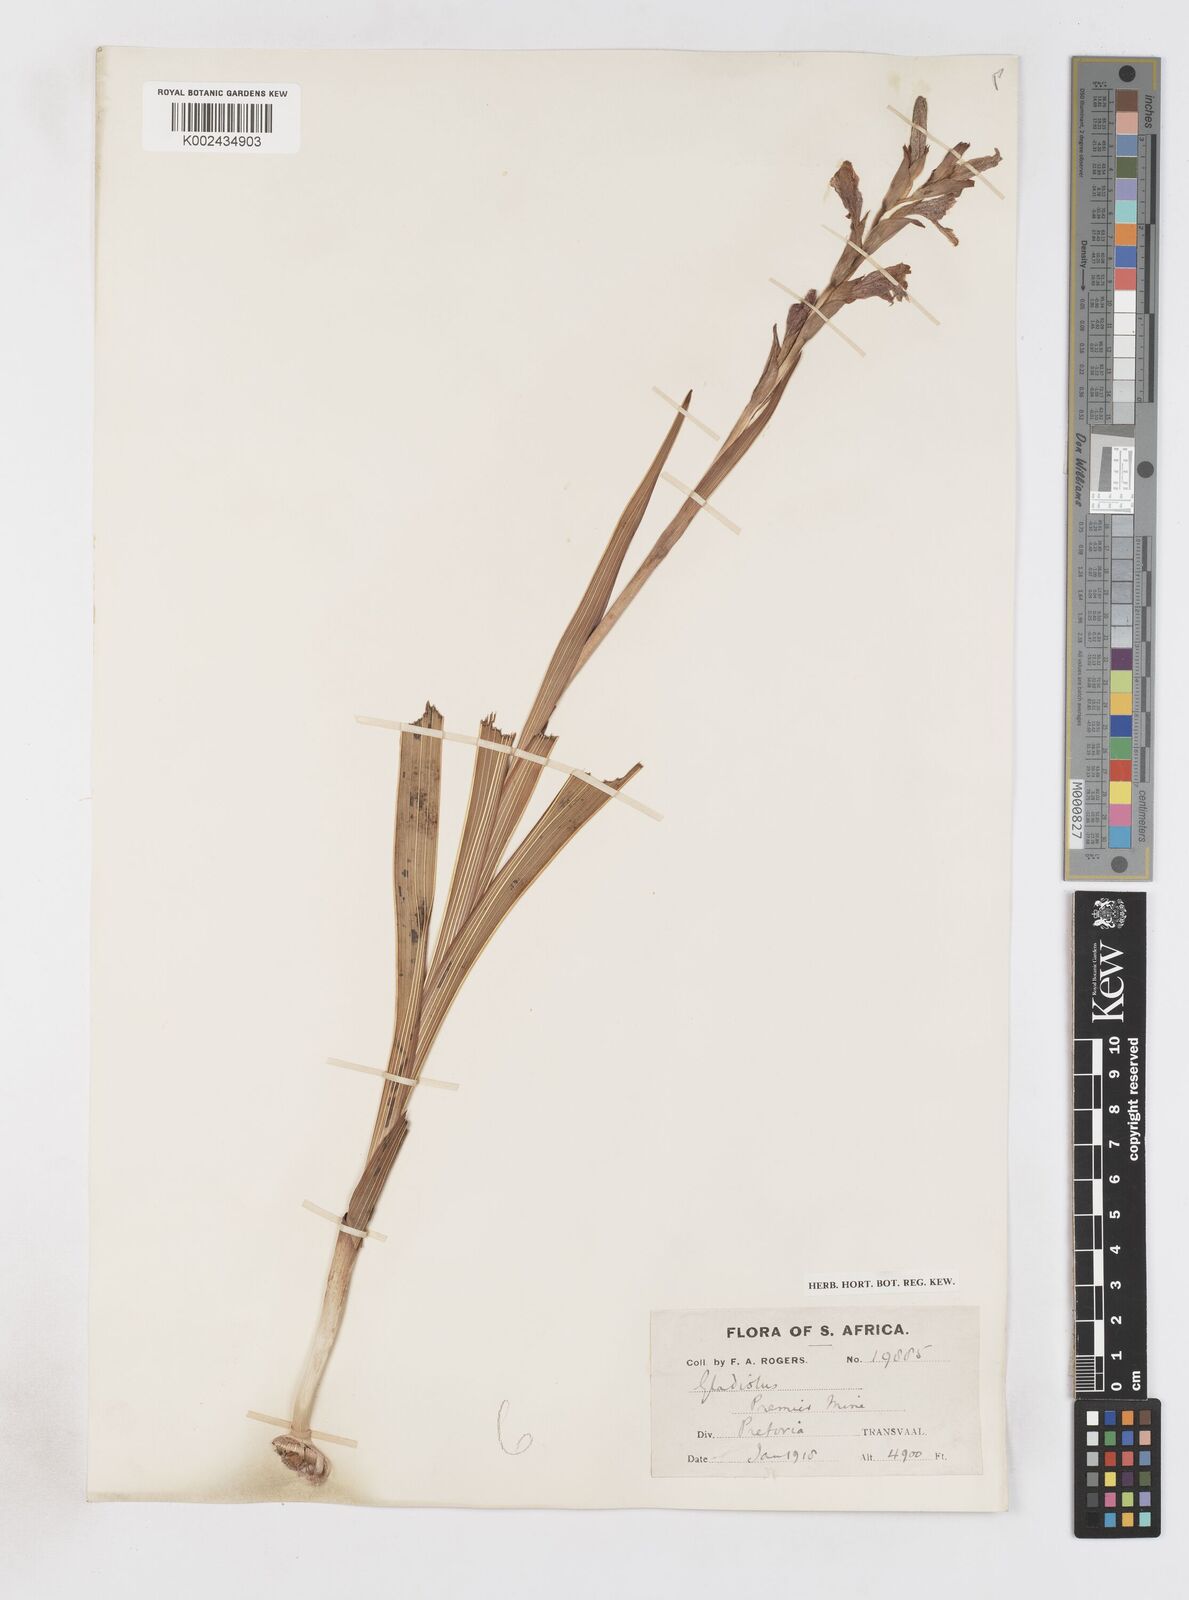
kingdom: Plantae
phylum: Tracheophyta
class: Liliopsida
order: Asparagales
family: Iridaceae
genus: Gladiolus
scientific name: Gladiolus elliotii
